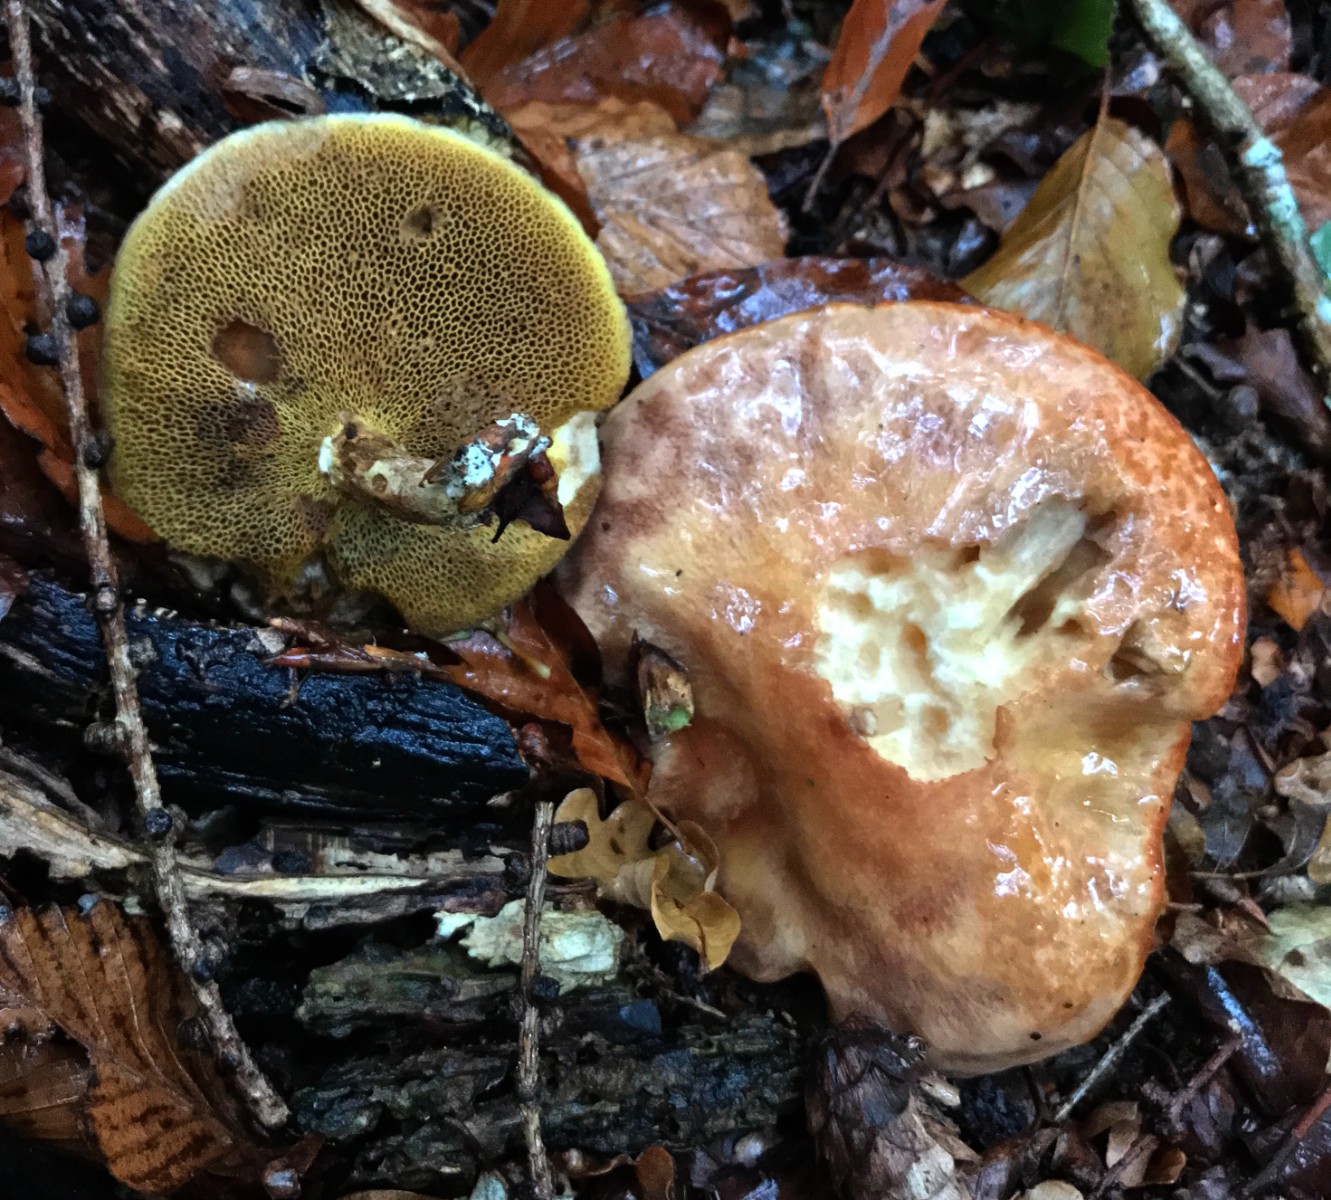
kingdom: Fungi
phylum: Basidiomycota
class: Agaricomycetes
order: Boletales
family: Suillaceae
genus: Suillus
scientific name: Suillus grevillei
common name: lærke-slimrørhat
